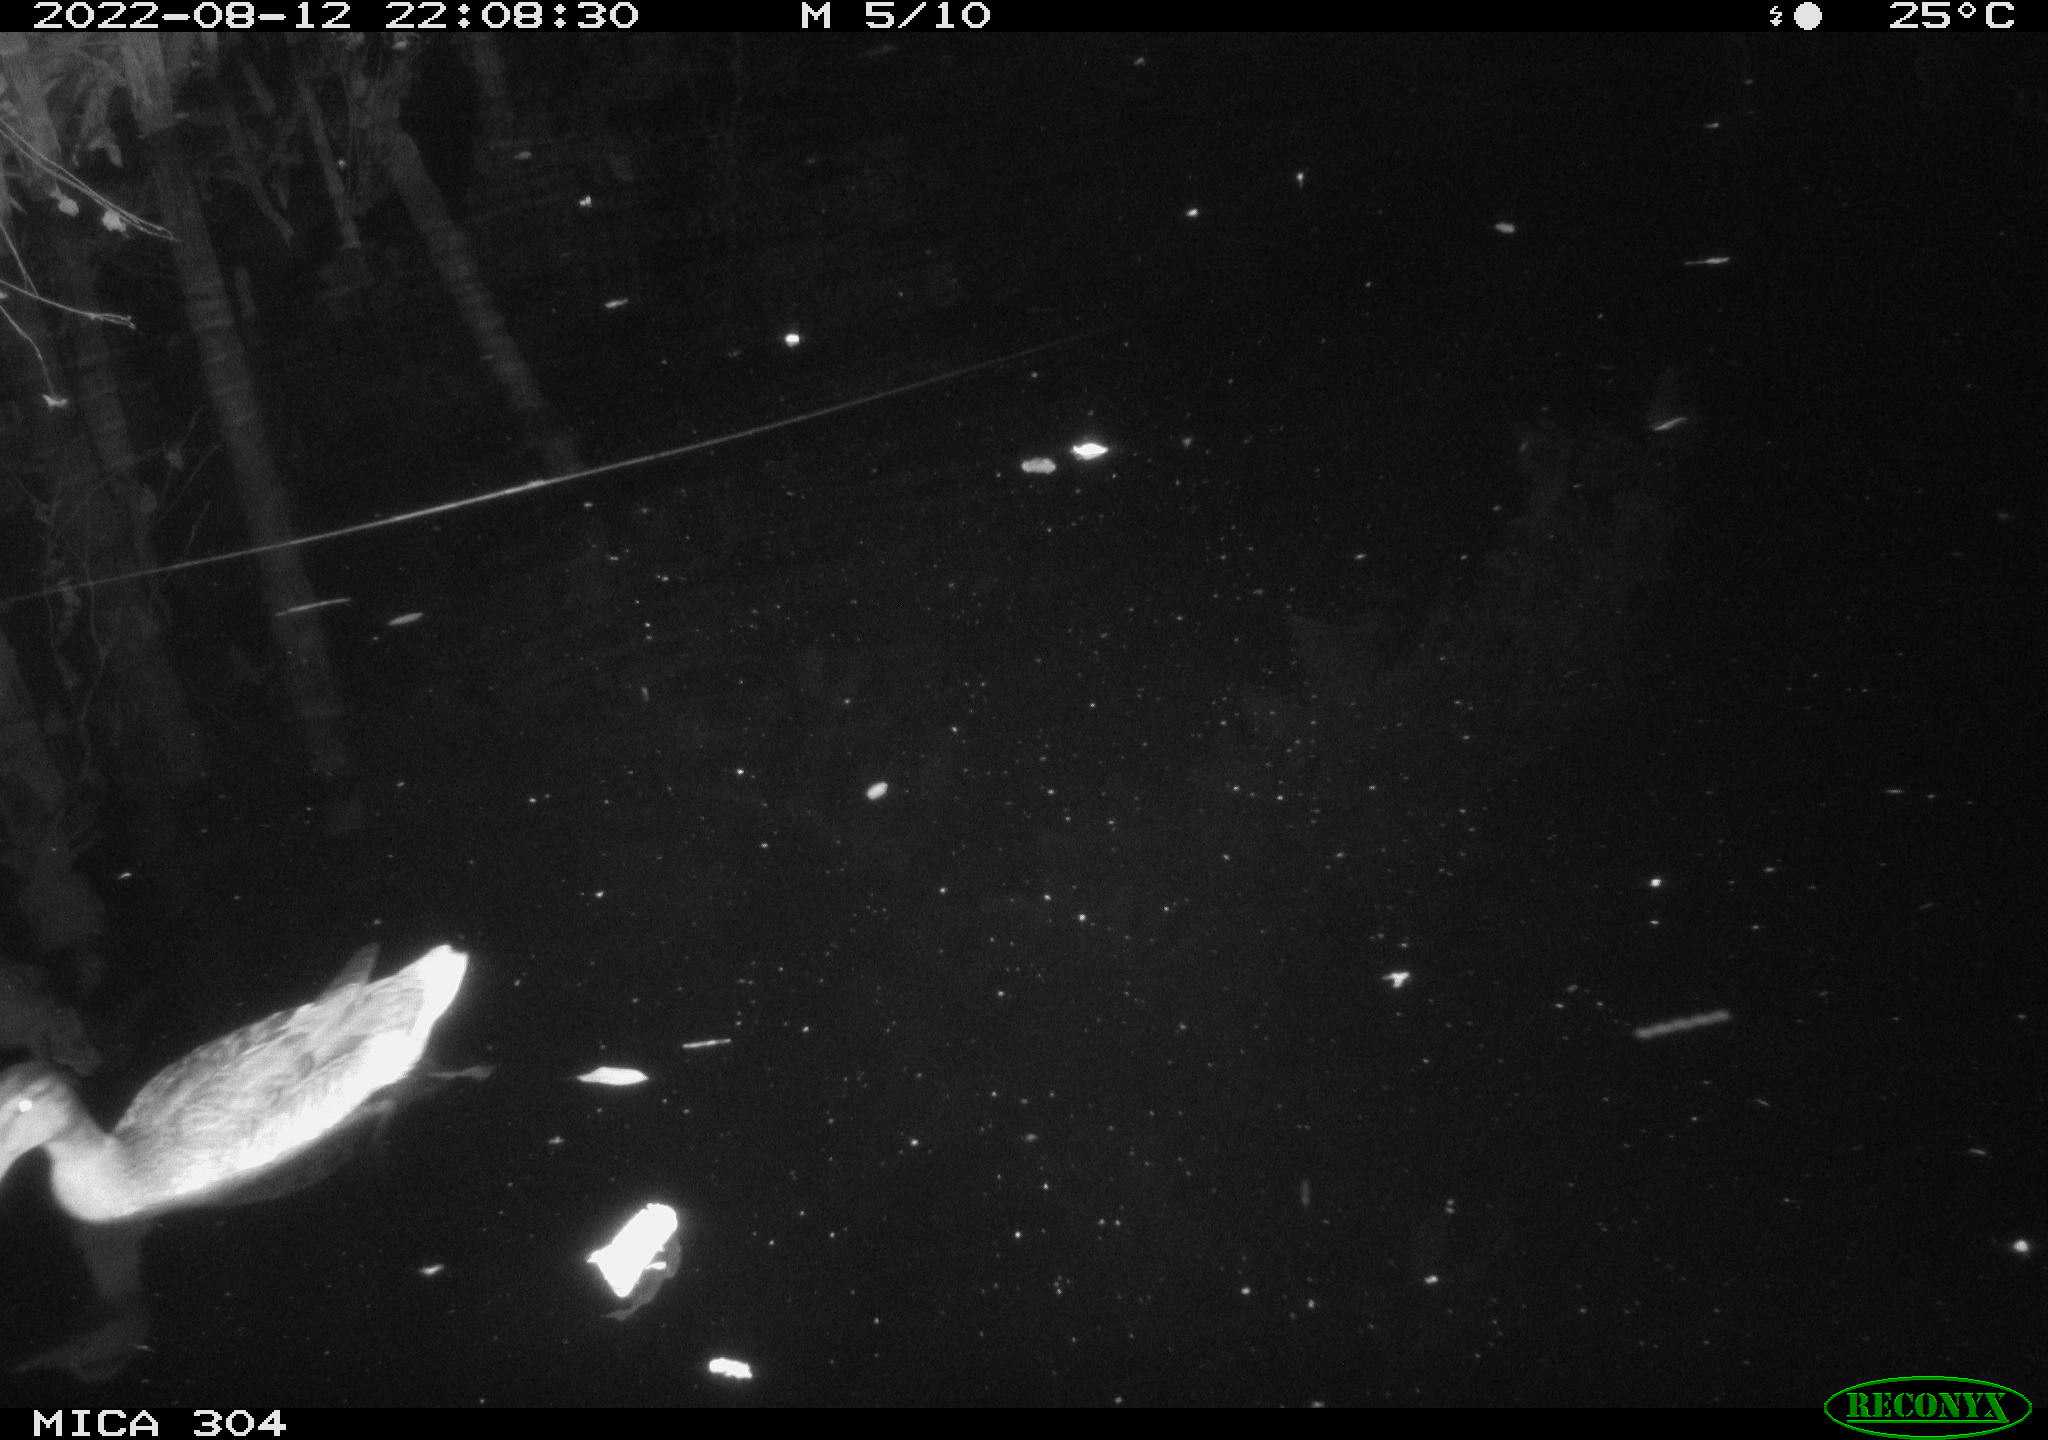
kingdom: Animalia
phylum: Chordata
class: Aves
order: Anseriformes
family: Anatidae
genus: Anas
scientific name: Anas platyrhynchos
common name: Mallard
